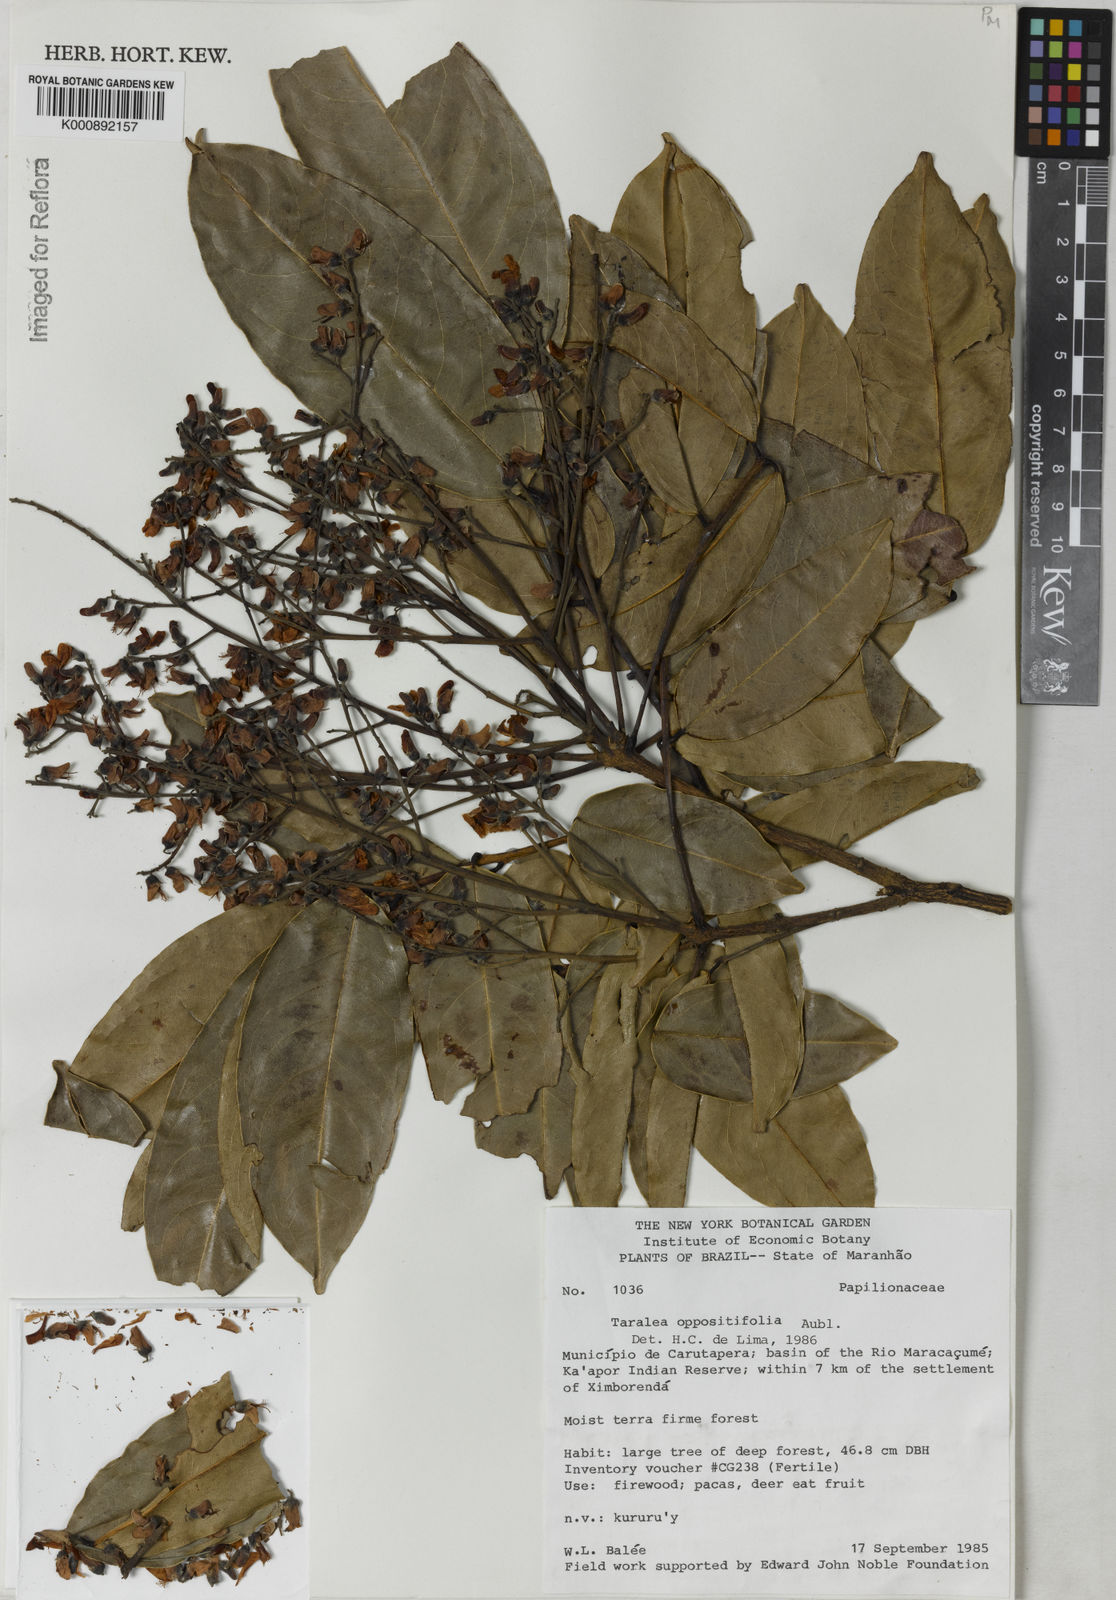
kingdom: Plantae
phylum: Tracheophyta
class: Magnoliopsida
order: Fabales
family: Fabaceae
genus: Taralea
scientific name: Taralea oppositifolia
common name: Tonka
